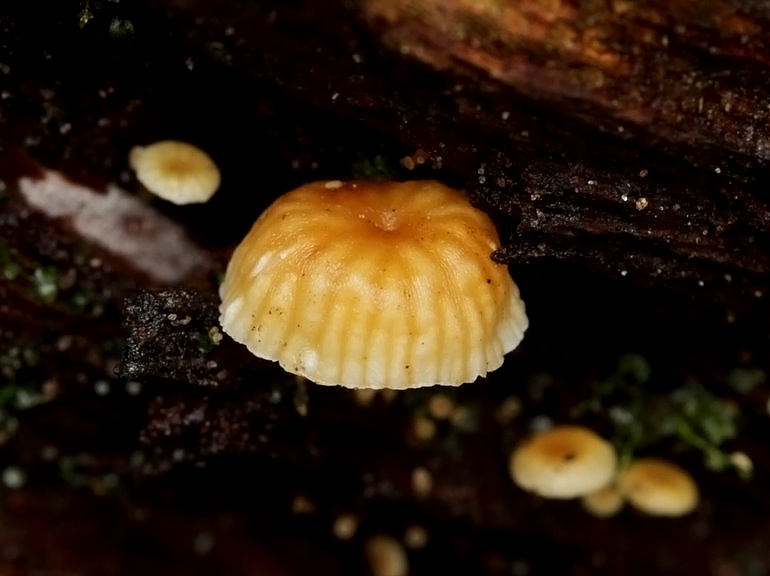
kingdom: Fungi
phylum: Basidiomycota
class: Agaricomycetes
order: Agaricales
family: Mycenaceae
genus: Xeromphalina
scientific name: Xeromphalina campanella
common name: klokke-tørhat
